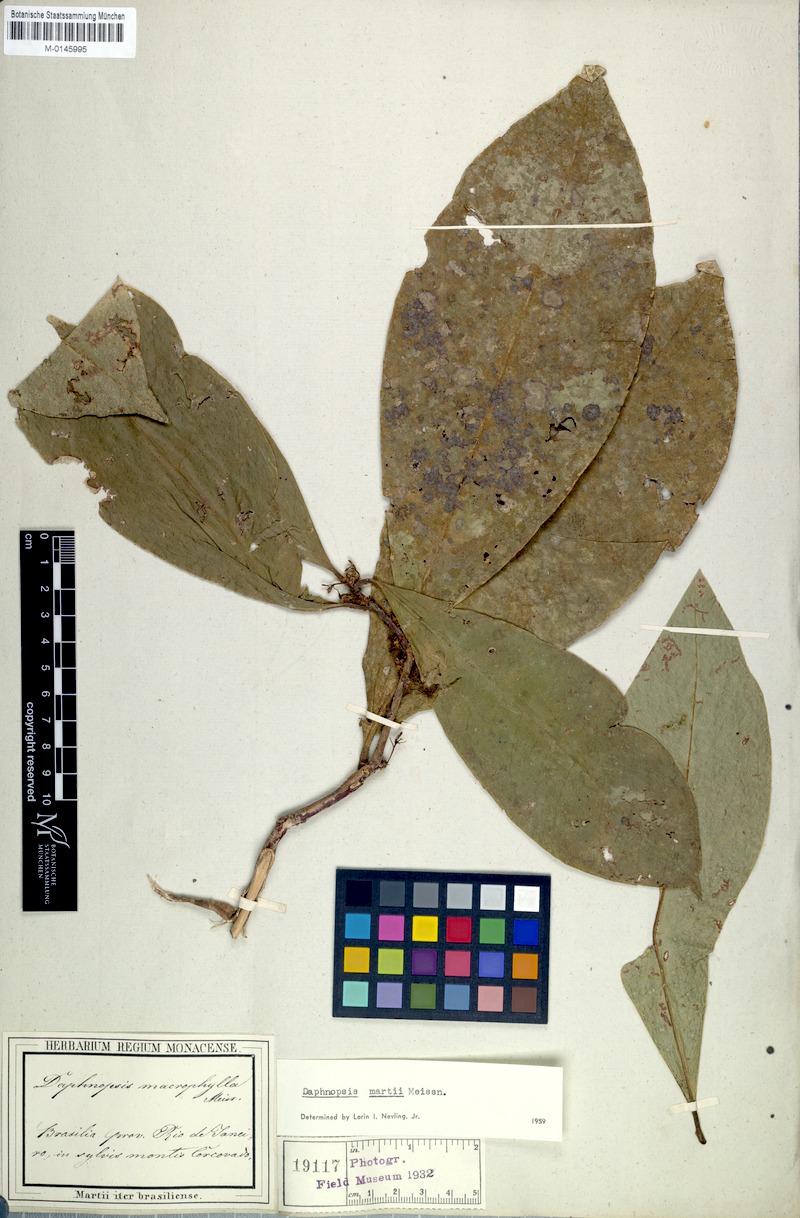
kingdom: Plantae
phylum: Tracheophyta
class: Magnoliopsida
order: Malvales
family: Thymelaeaceae
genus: Daphnopsis
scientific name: Daphnopsis martii
